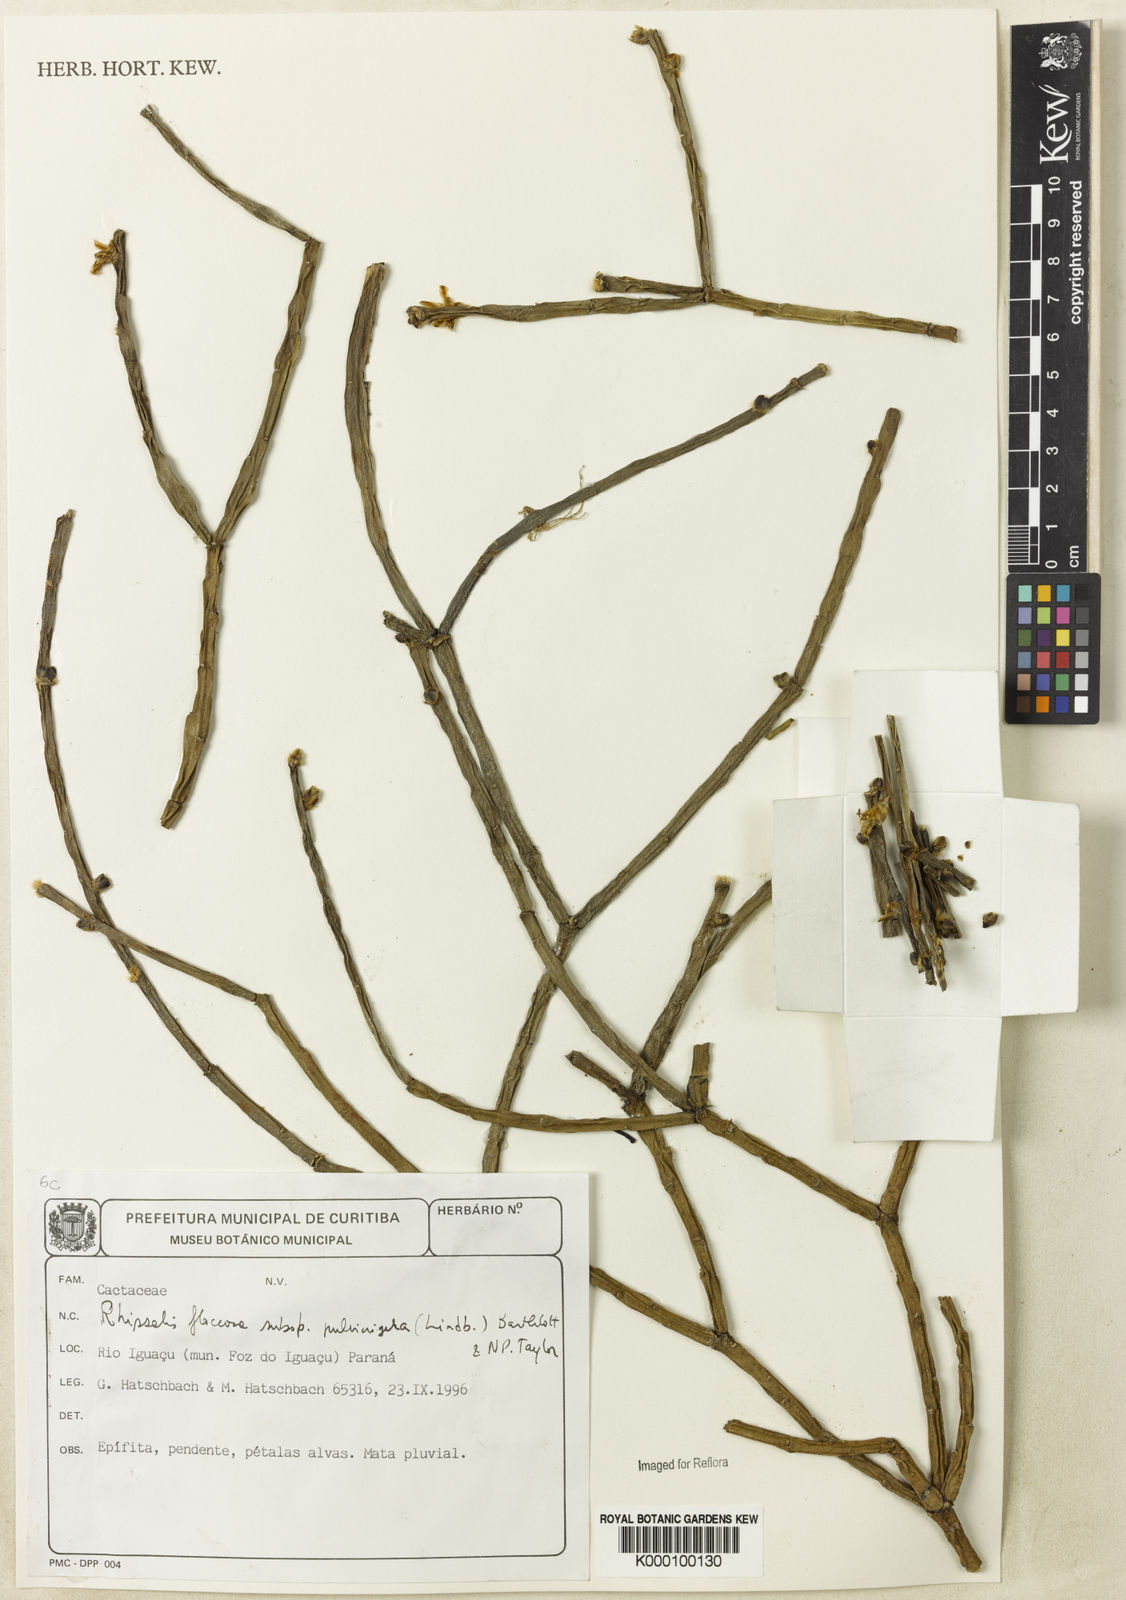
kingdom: Plantae
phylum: Tracheophyta
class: Magnoliopsida
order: Caryophyllales
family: Cactaceae
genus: Rhipsalis
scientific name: Rhipsalis floccosa
